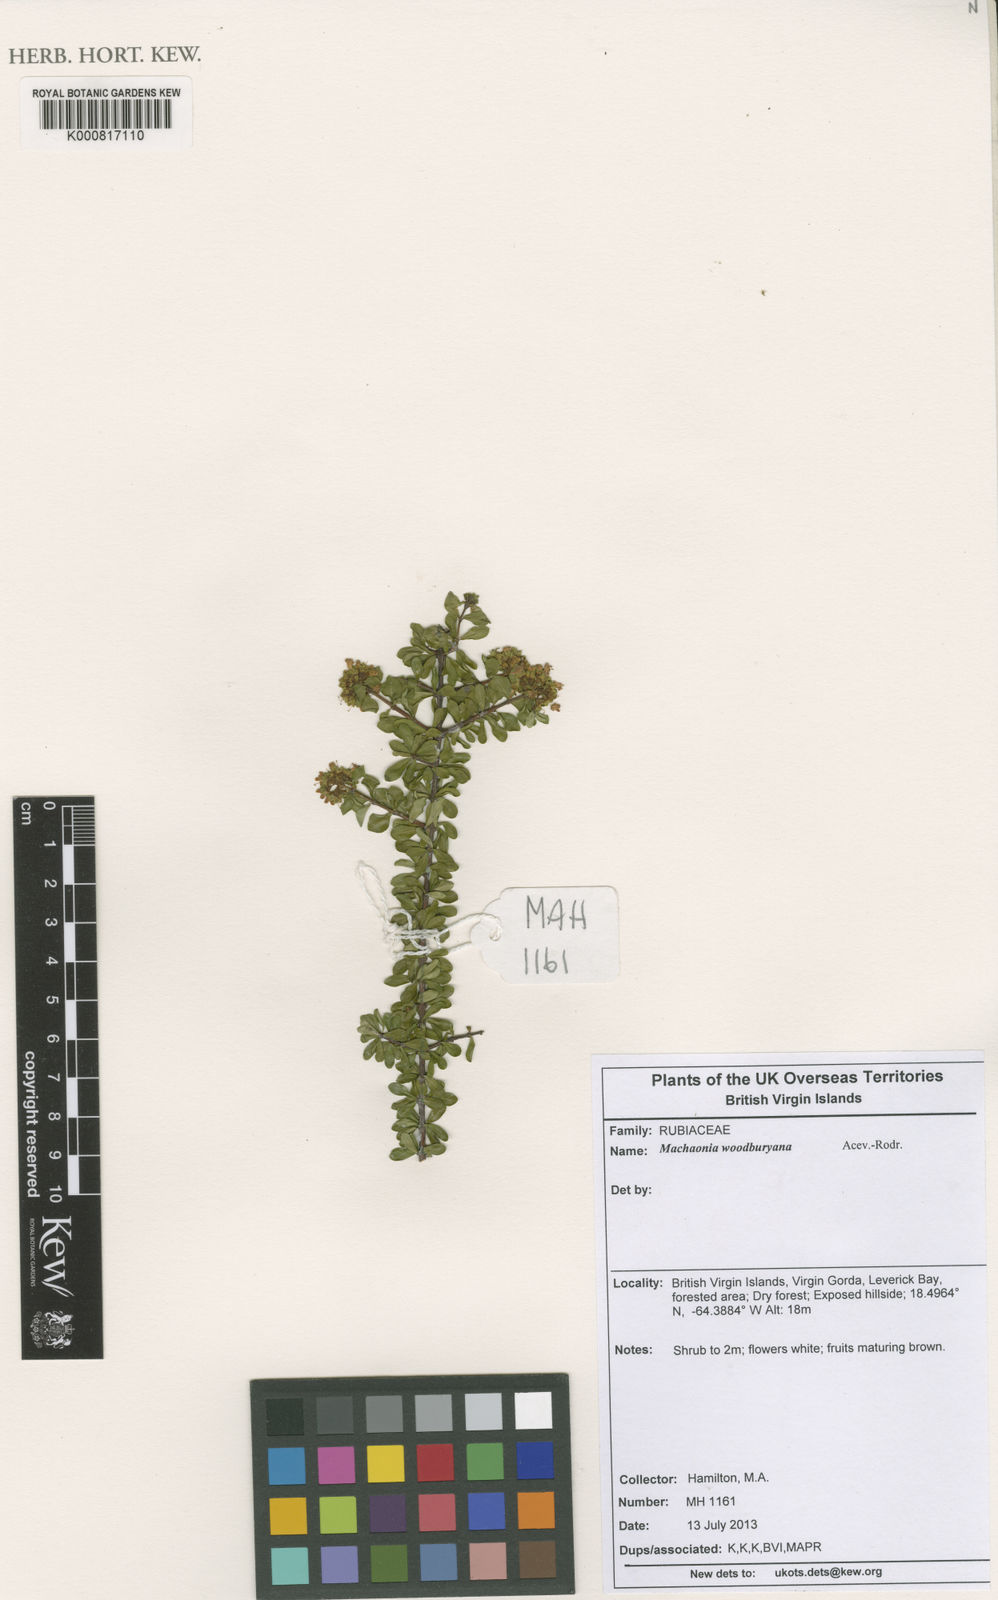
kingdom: Plantae
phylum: Tracheophyta
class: Magnoliopsida
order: Gentianales
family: Rubiaceae
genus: Machaonia
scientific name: Machaonia woodburyana
